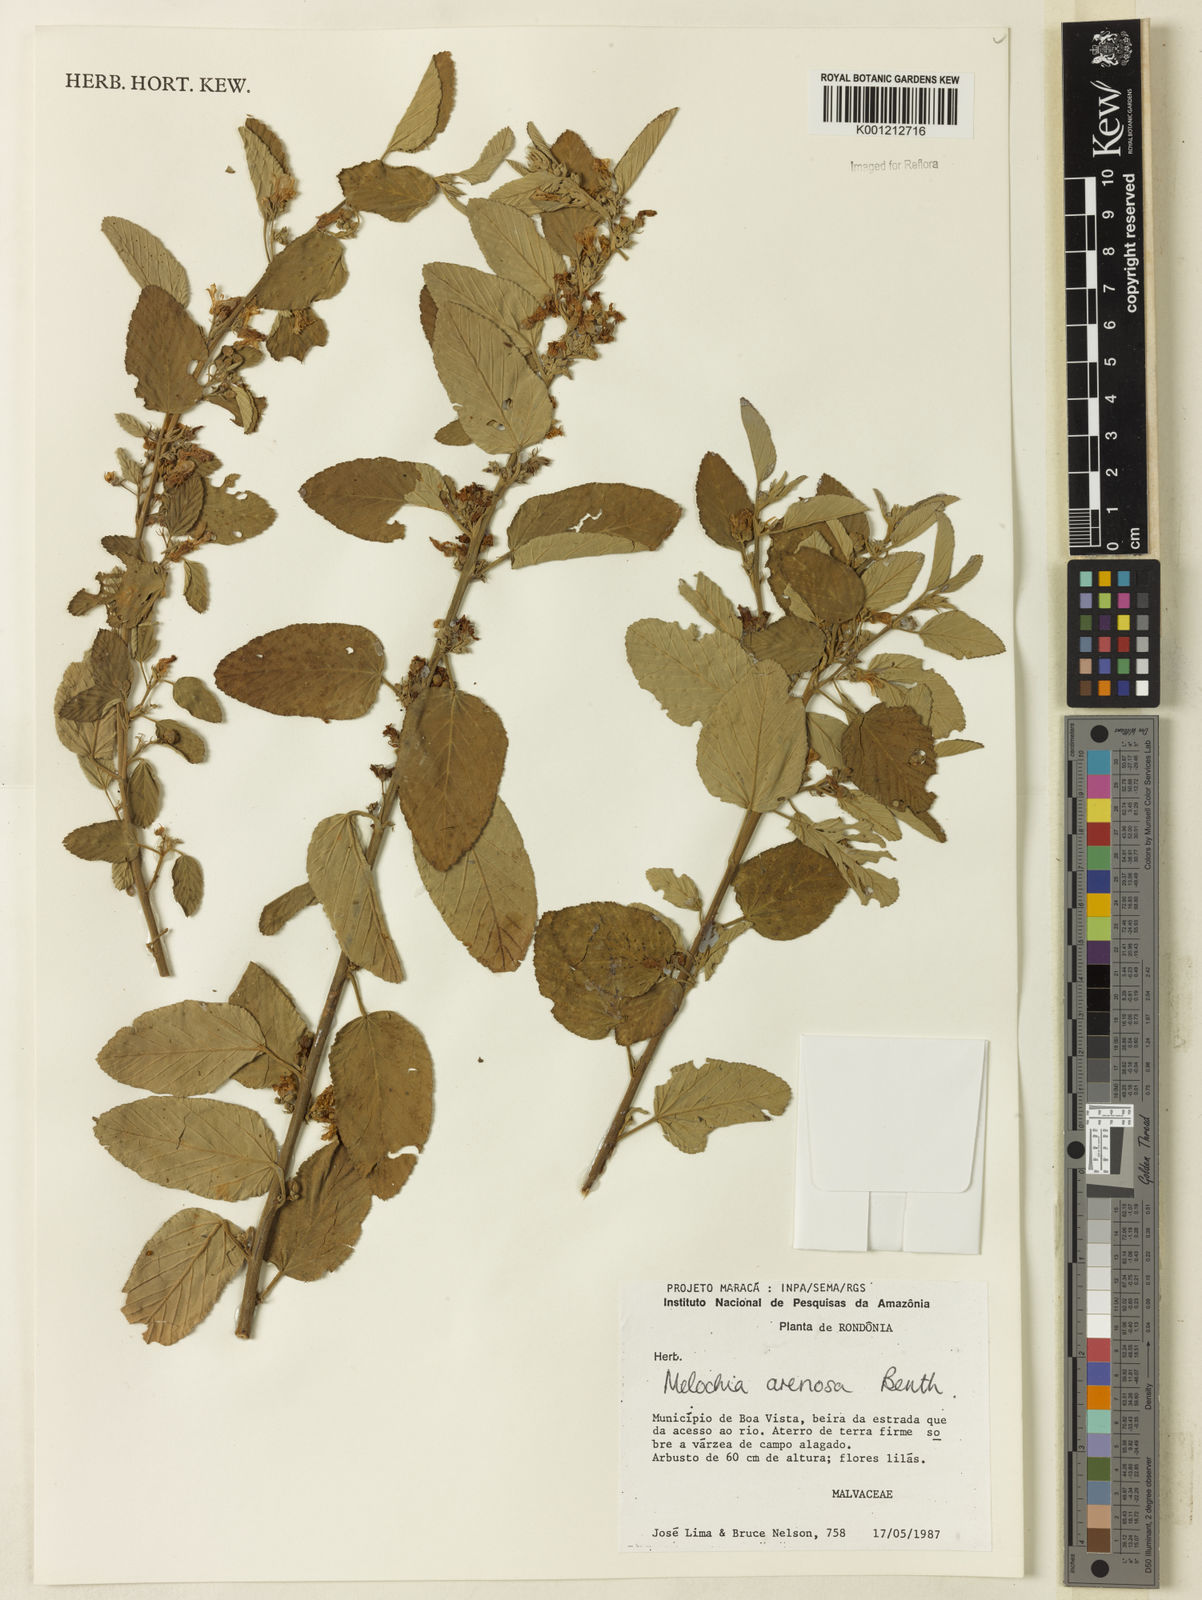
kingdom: Plantae
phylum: Tracheophyta
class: Magnoliopsida
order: Malvales
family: Malvaceae
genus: Melochia
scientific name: Melochia arenosa
